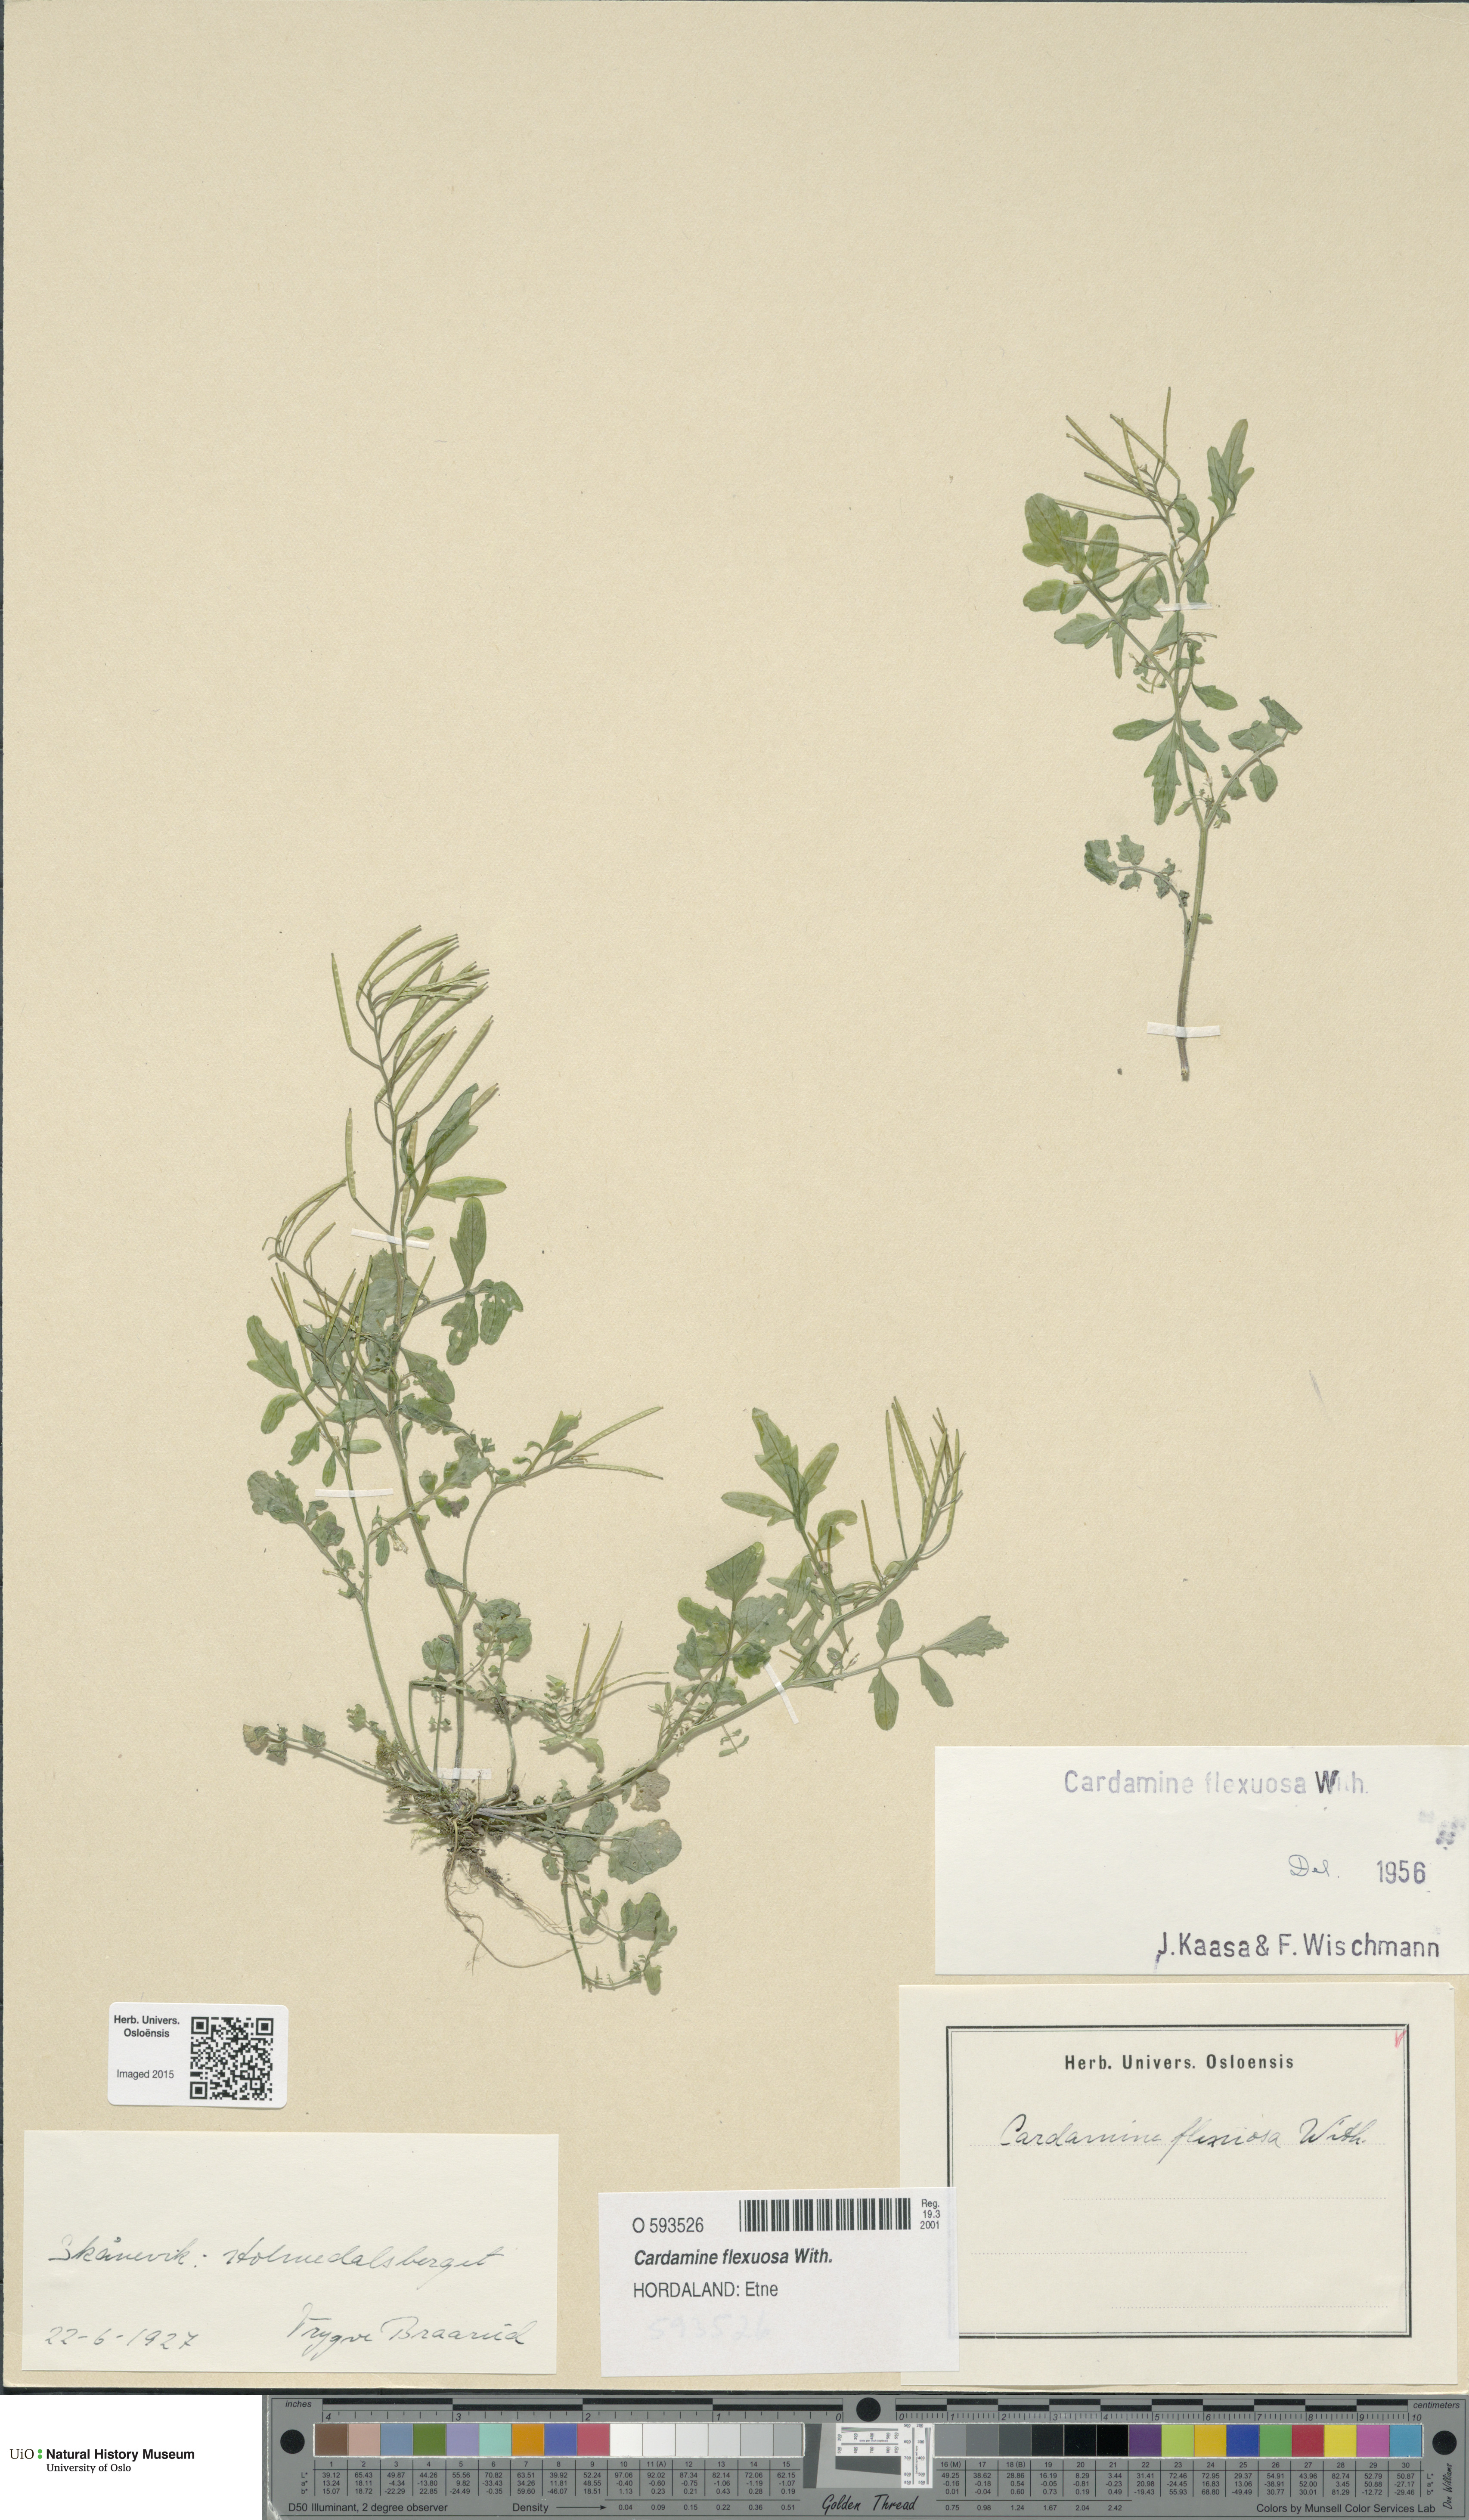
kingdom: Plantae
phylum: Tracheophyta
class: Magnoliopsida
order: Brassicales
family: Brassicaceae
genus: Cardamine
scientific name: Cardamine flexuosa
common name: Woodland bittercress
